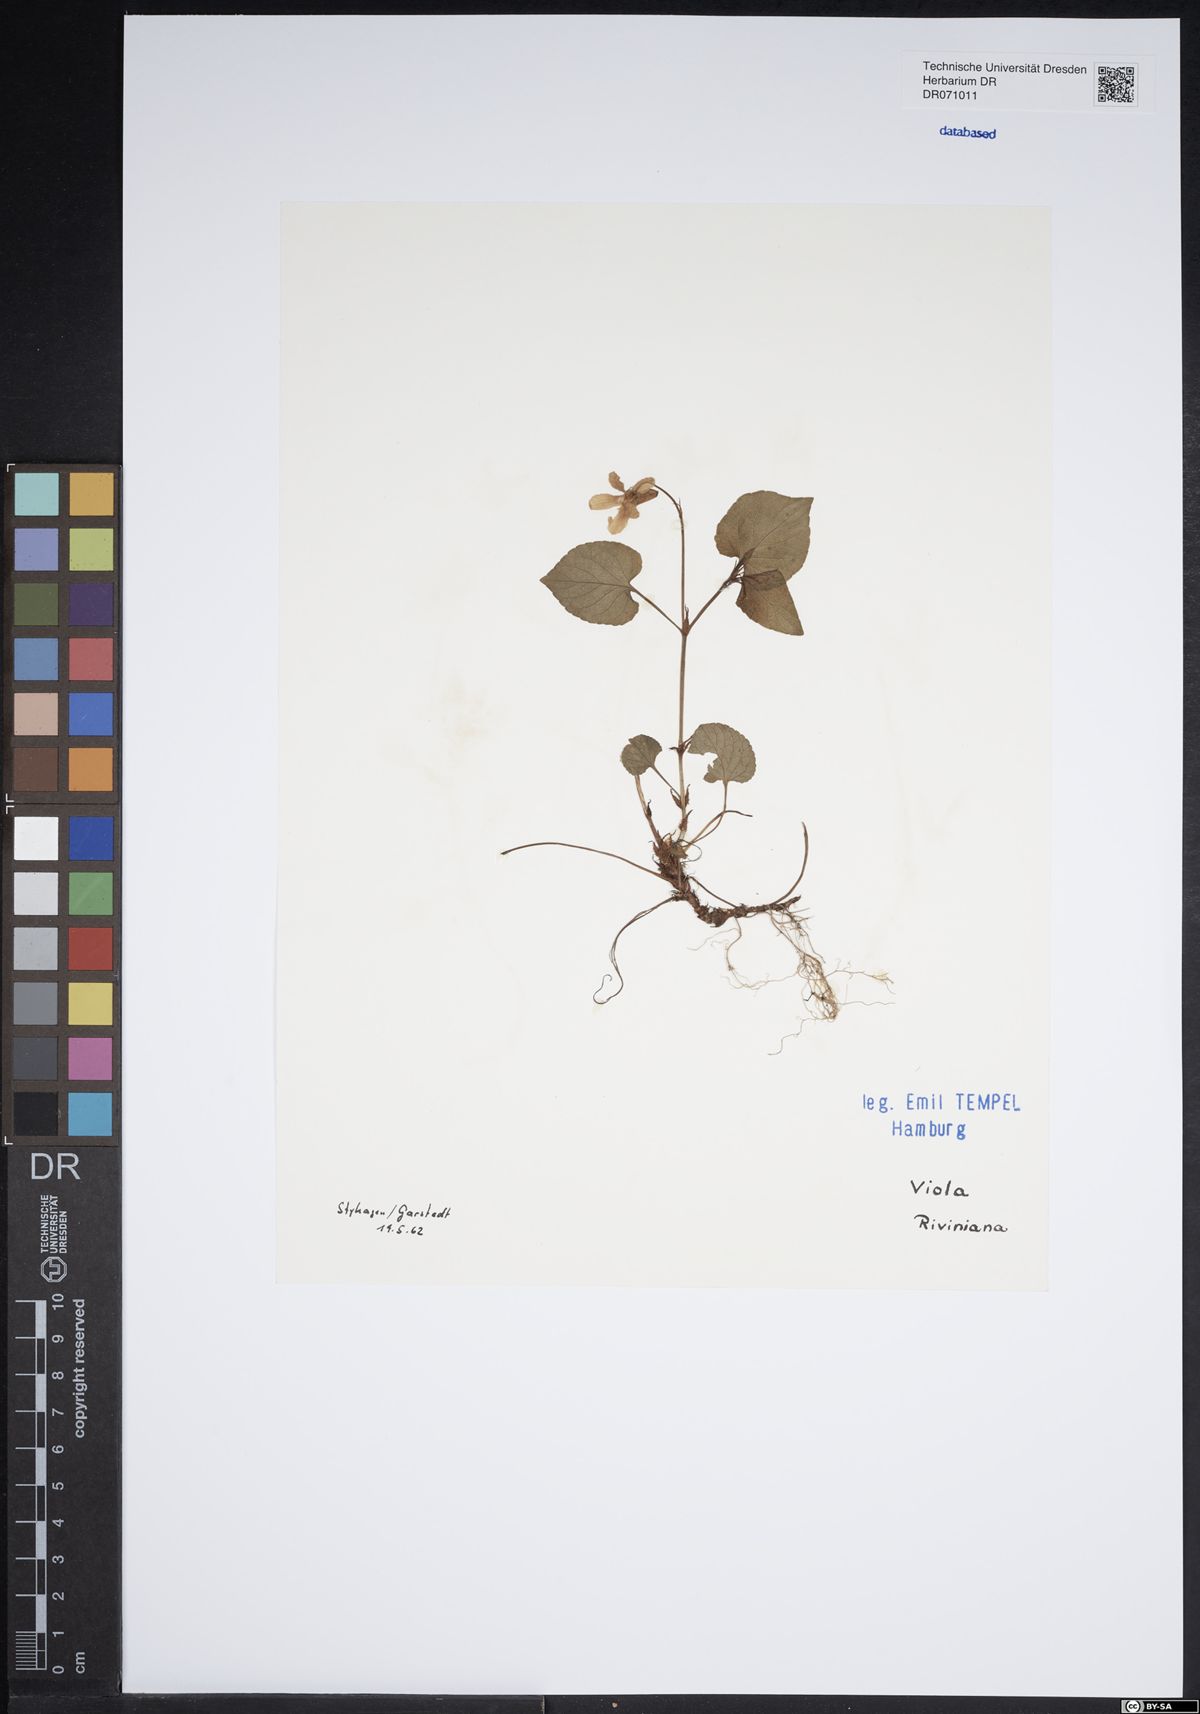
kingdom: Plantae
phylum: Tracheophyta
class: Magnoliopsida
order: Malpighiales
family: Violaceae
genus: Viola
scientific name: Viola riviniana
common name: Common dog-violet
